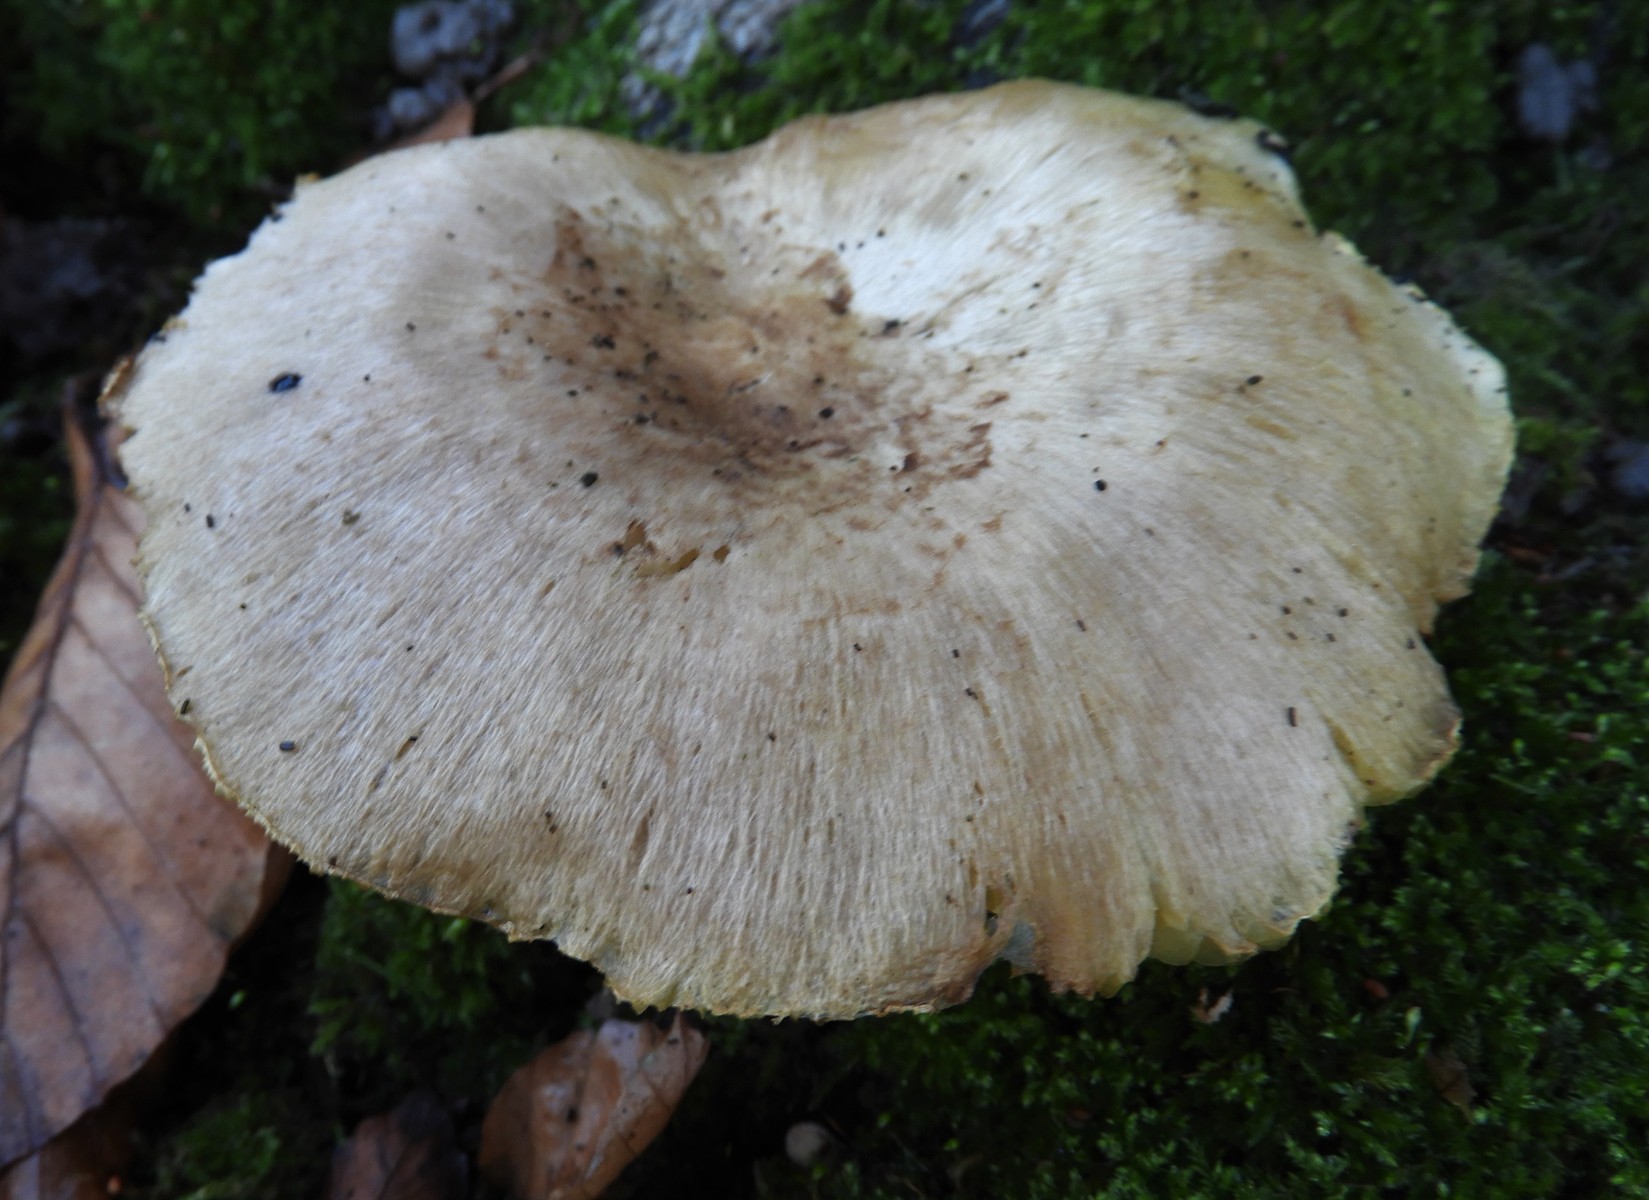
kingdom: Fungi
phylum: Basidiomycota
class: Agaricomycetes
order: Agaricales
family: Tricholomataceae
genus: Tricholoma
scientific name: Tricholoma scalpturatum
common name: gulplettet ridderhat
